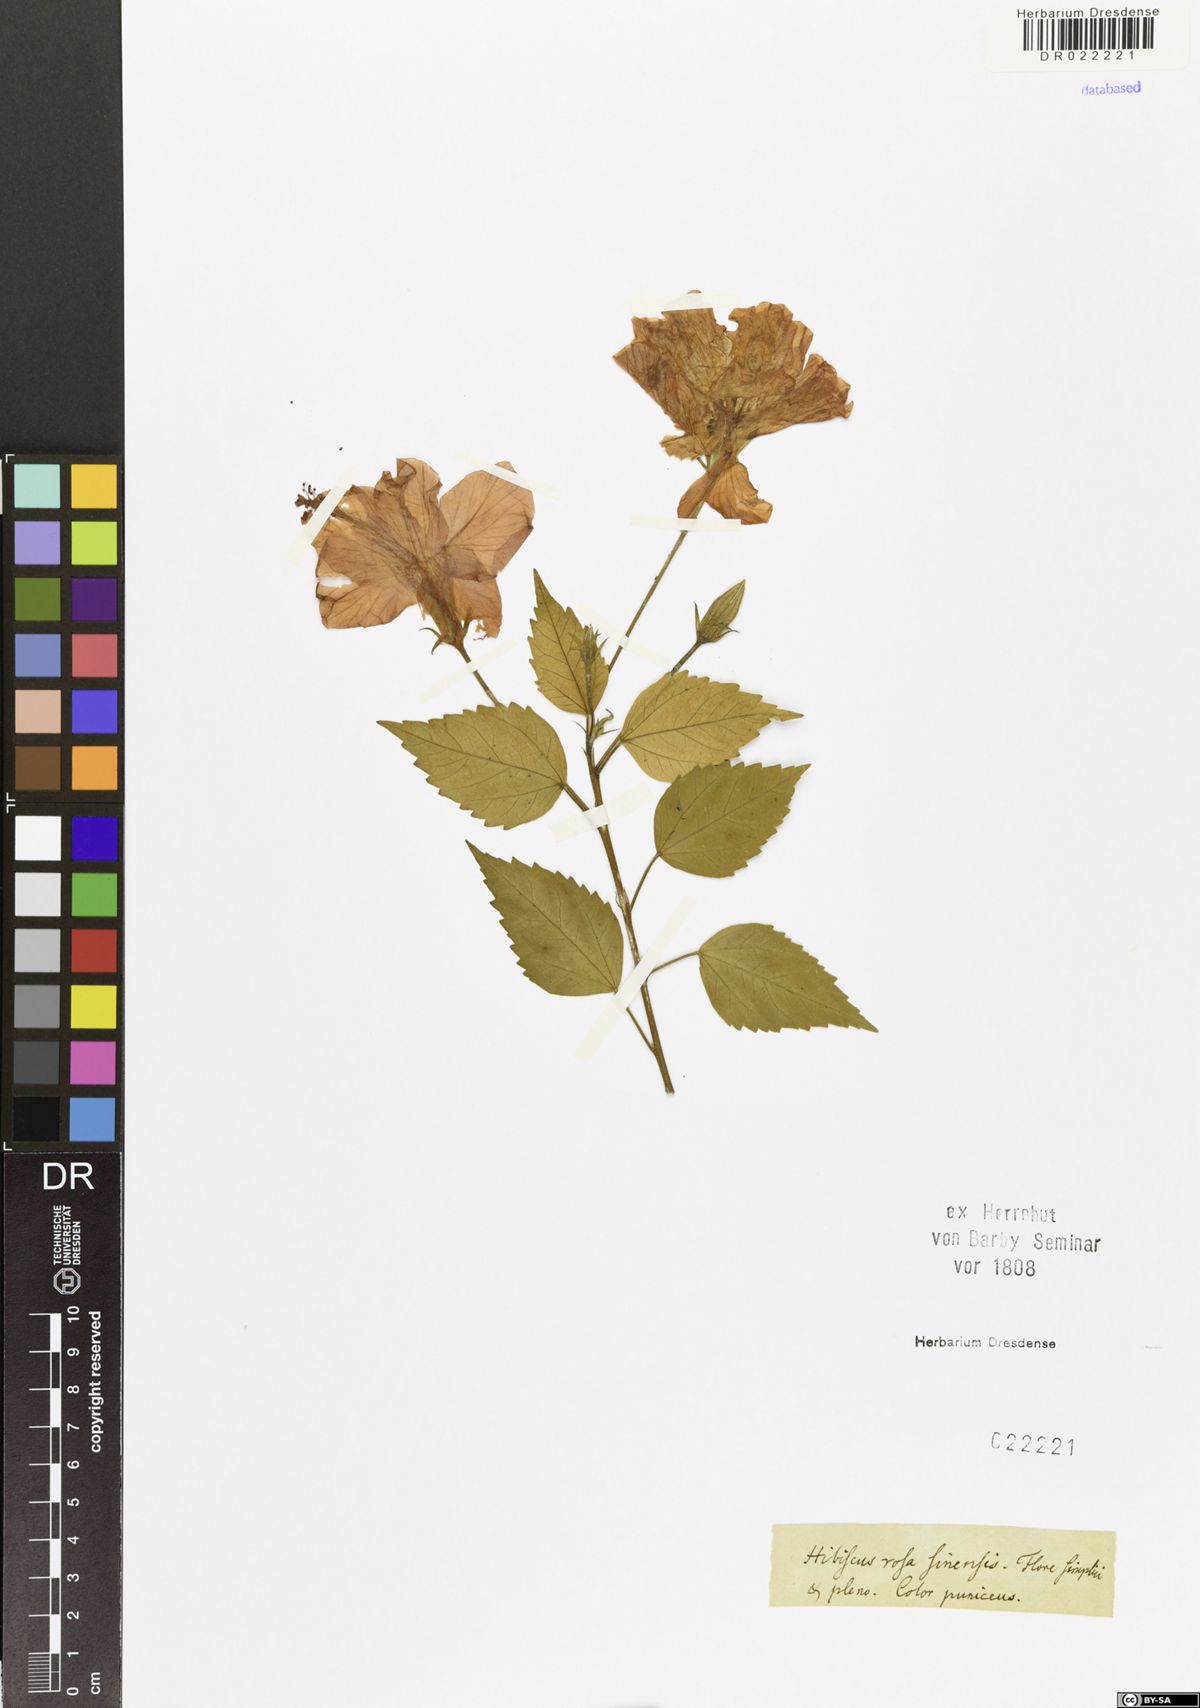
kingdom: Plantae
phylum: Tracheophyta
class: Magnoliopsida
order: Malvales
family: Malvaceae
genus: Hibiscus
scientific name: Hibiscus rosa-sinensis
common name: Hibiscus
